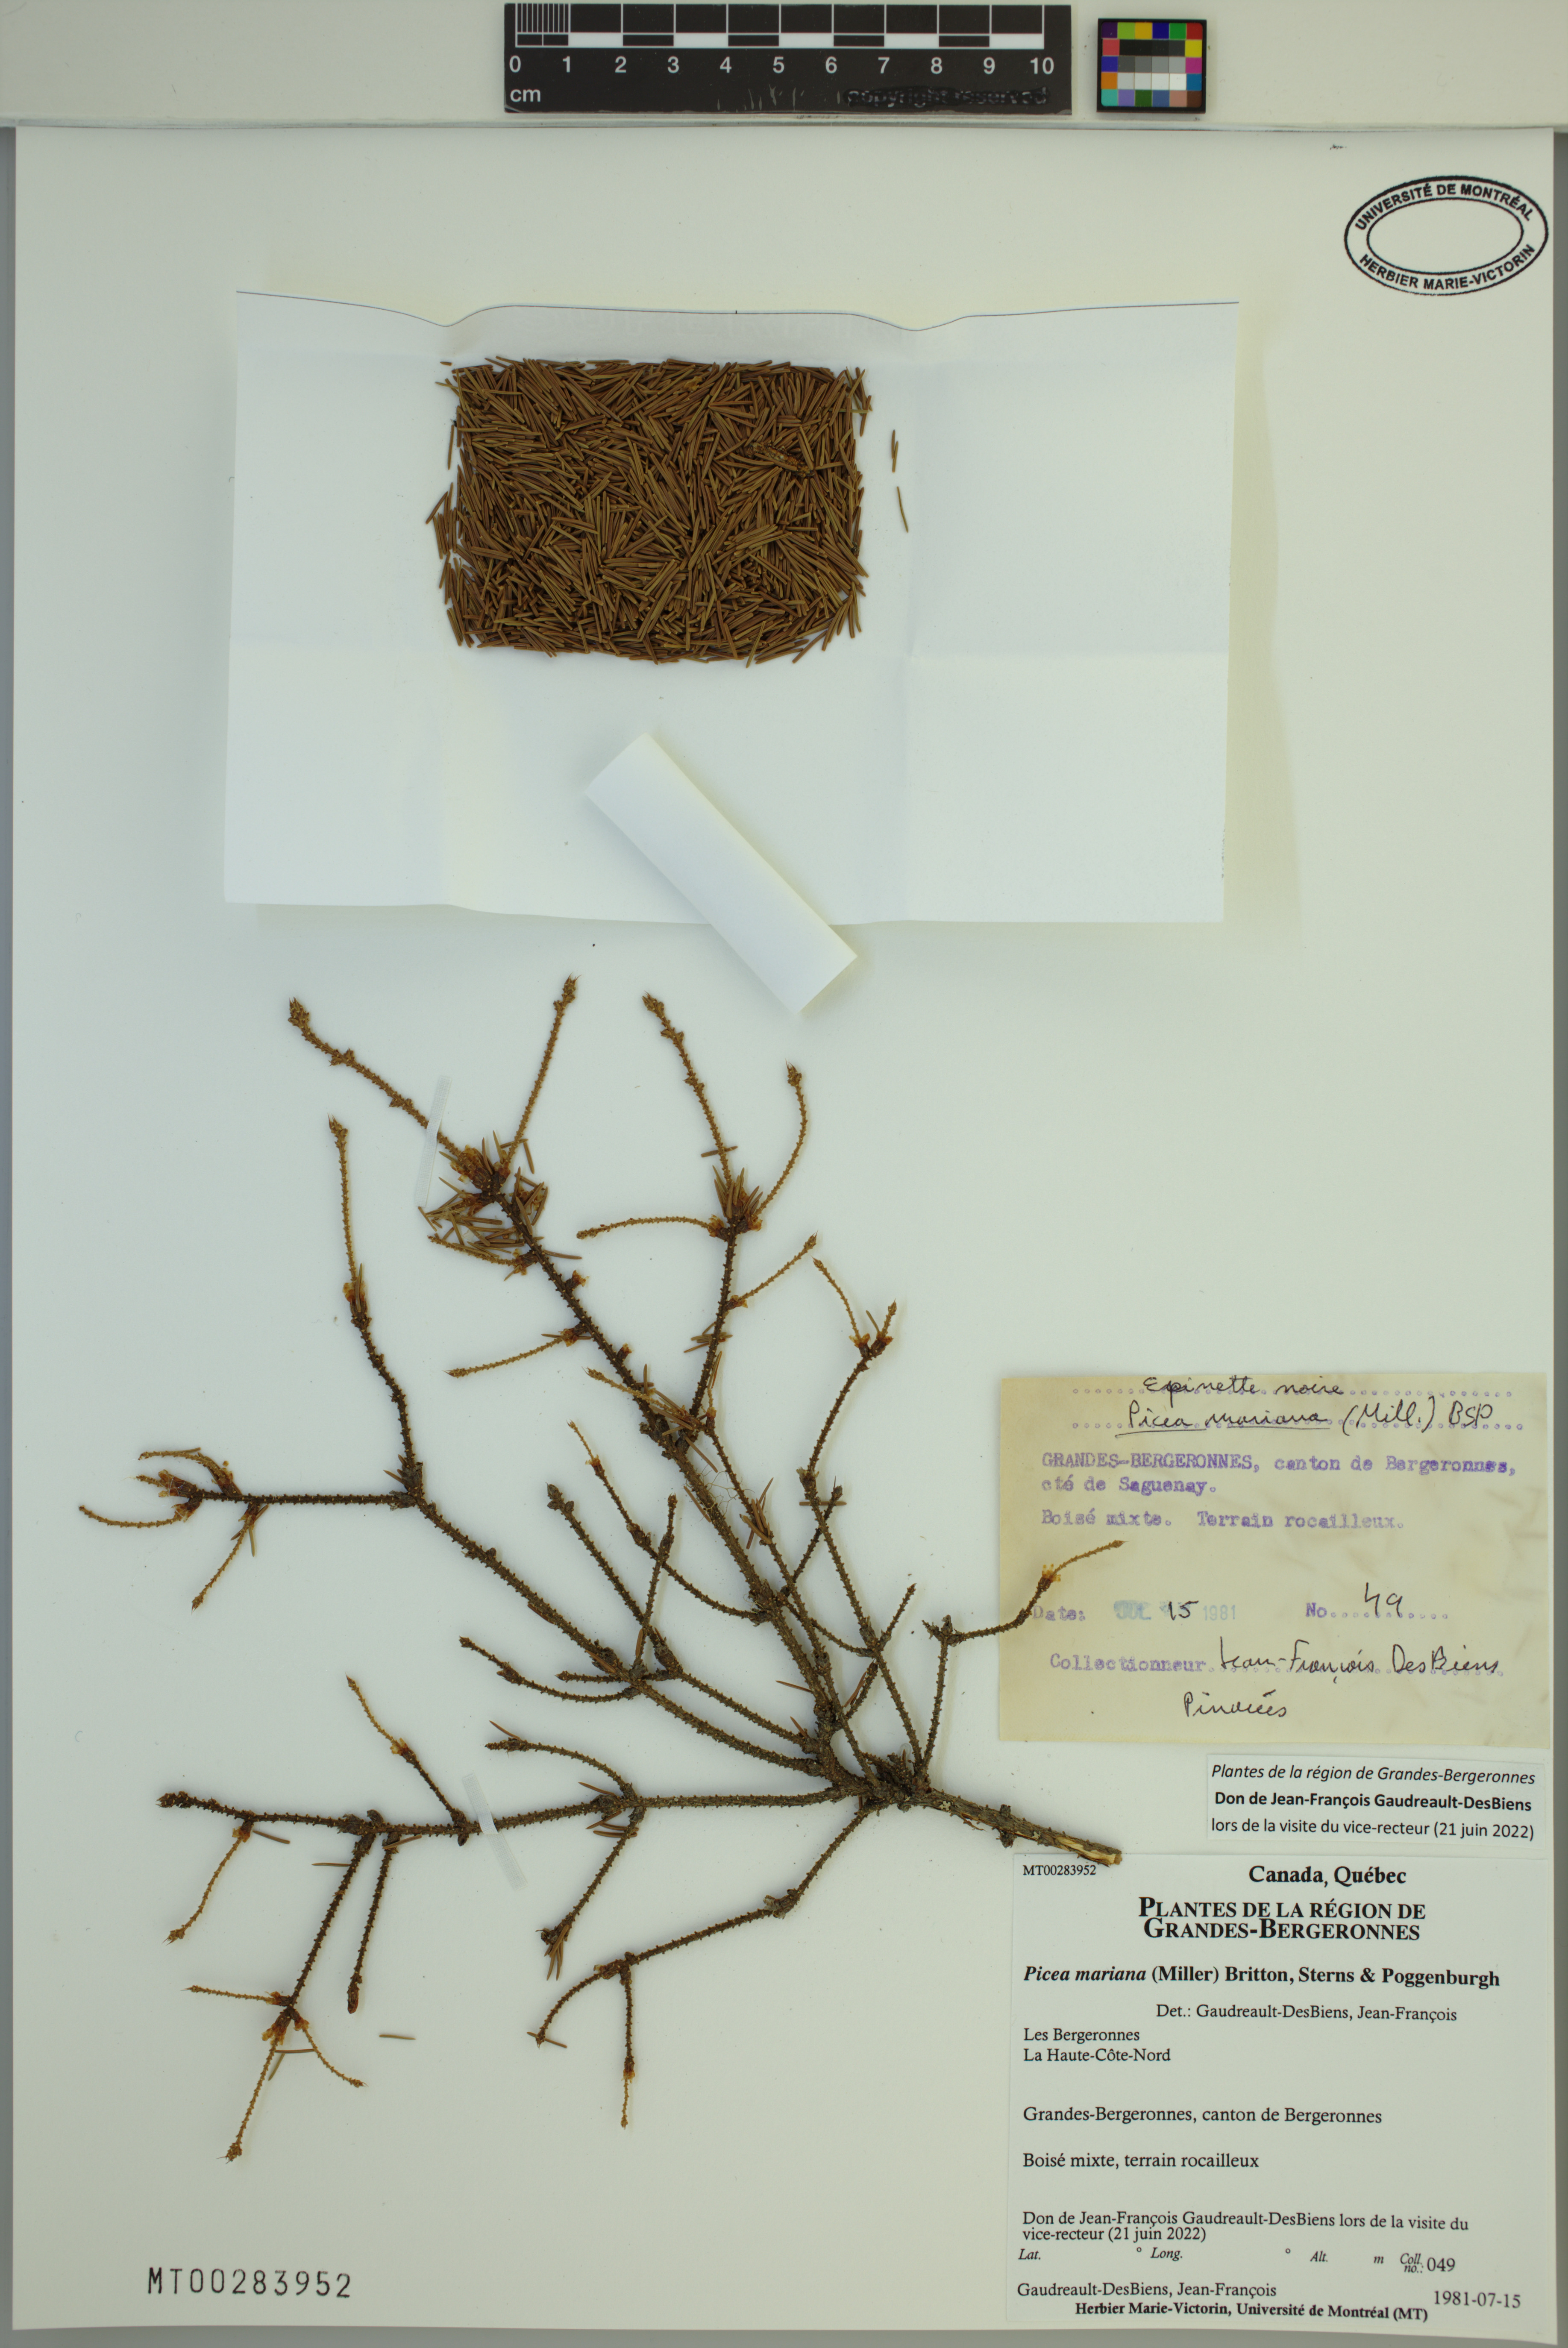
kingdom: Plantae
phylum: Tracheophyta
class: Pinopsida
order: Pinales
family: Pinaceae
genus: Picea
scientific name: Picea mariana
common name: Black spruce
